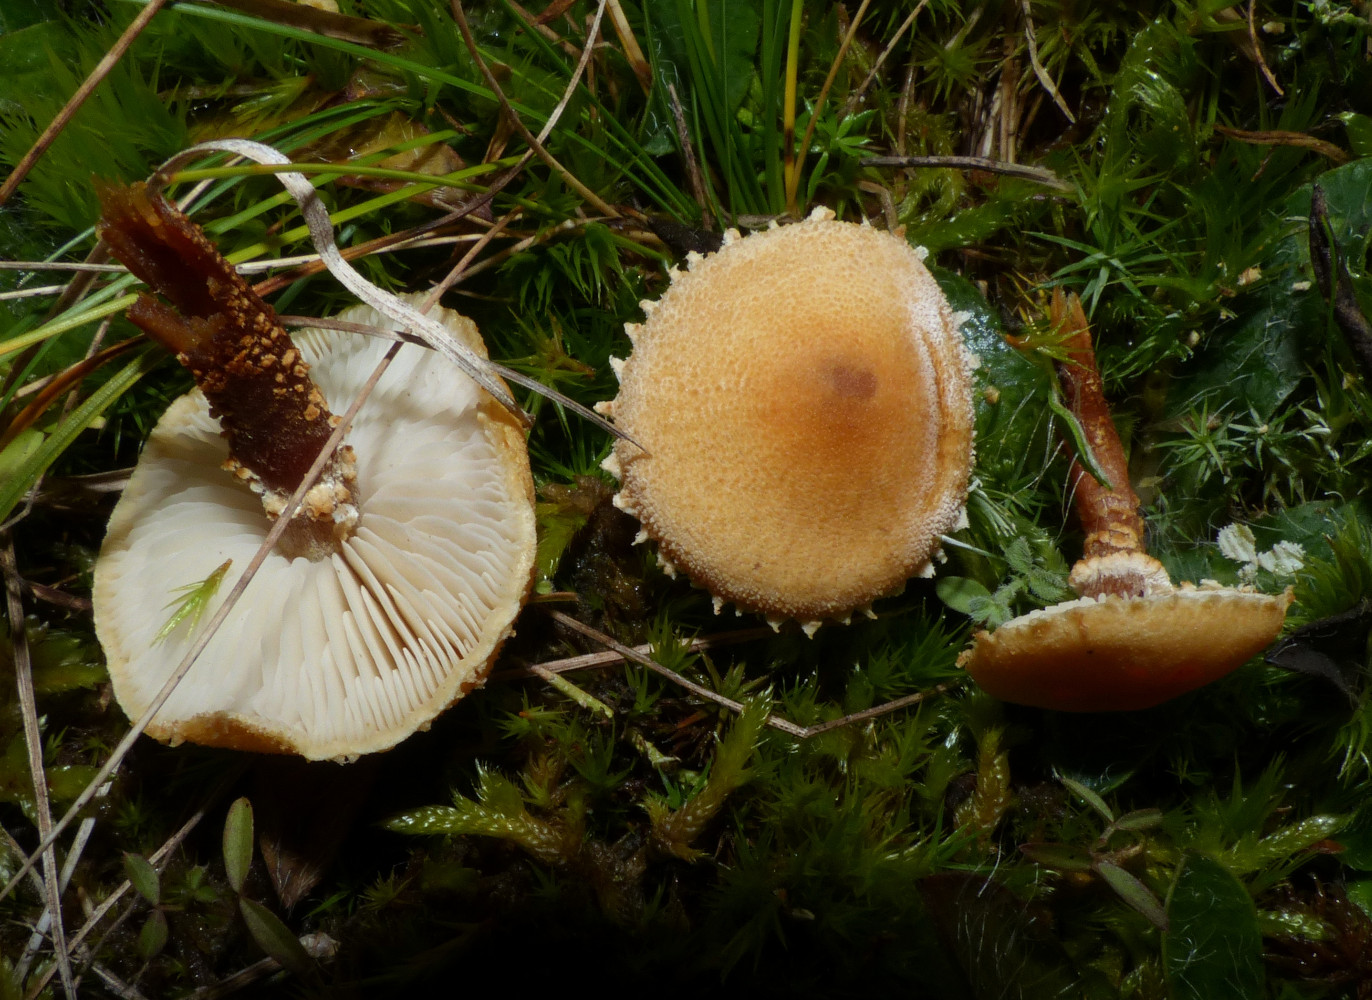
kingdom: Fungi
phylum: Basidiomycota
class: Agaricomycetes
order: Agaricales
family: Tricholomataceae
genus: Cystoderma
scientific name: Cystoderma jasonis
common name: gulkødet grynhat
